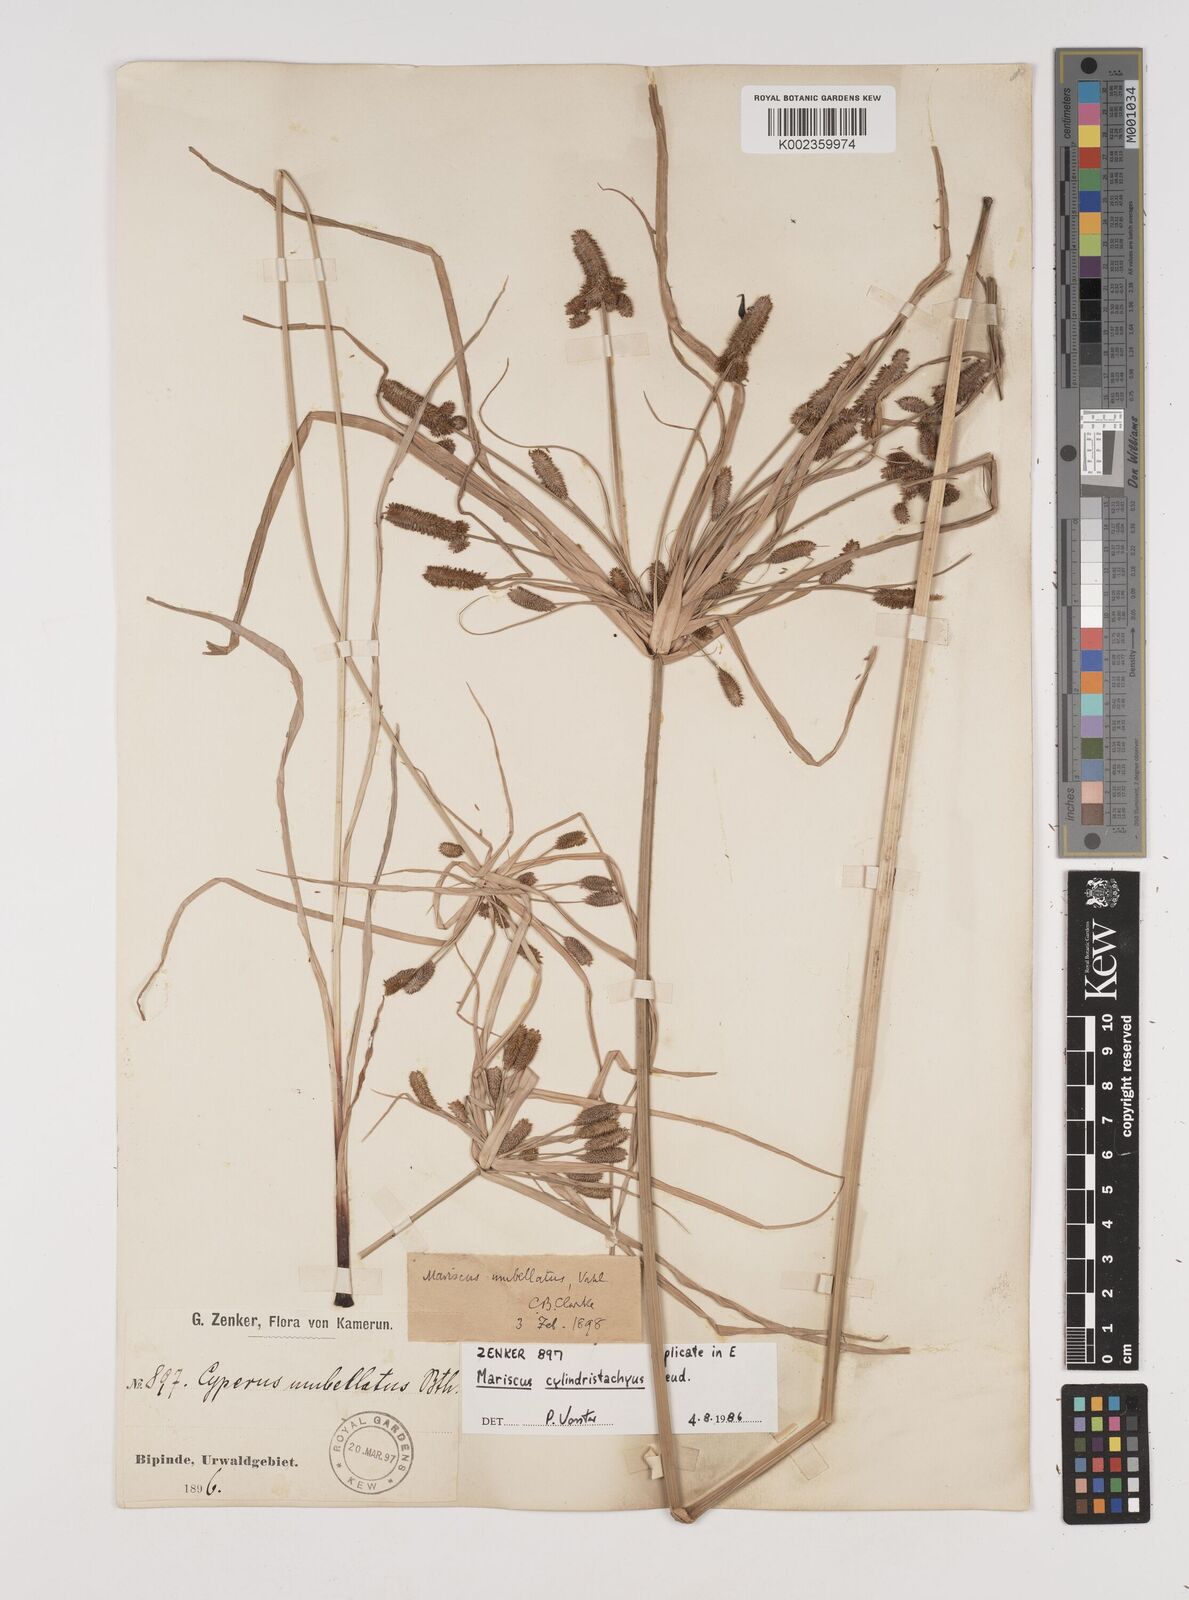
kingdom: Plantae
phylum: Tracheophyta
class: Liliopsida
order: Poales
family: Cyperaceae
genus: Cyperus
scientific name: Cyperus cyperoides
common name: Pacific island flat sedge
